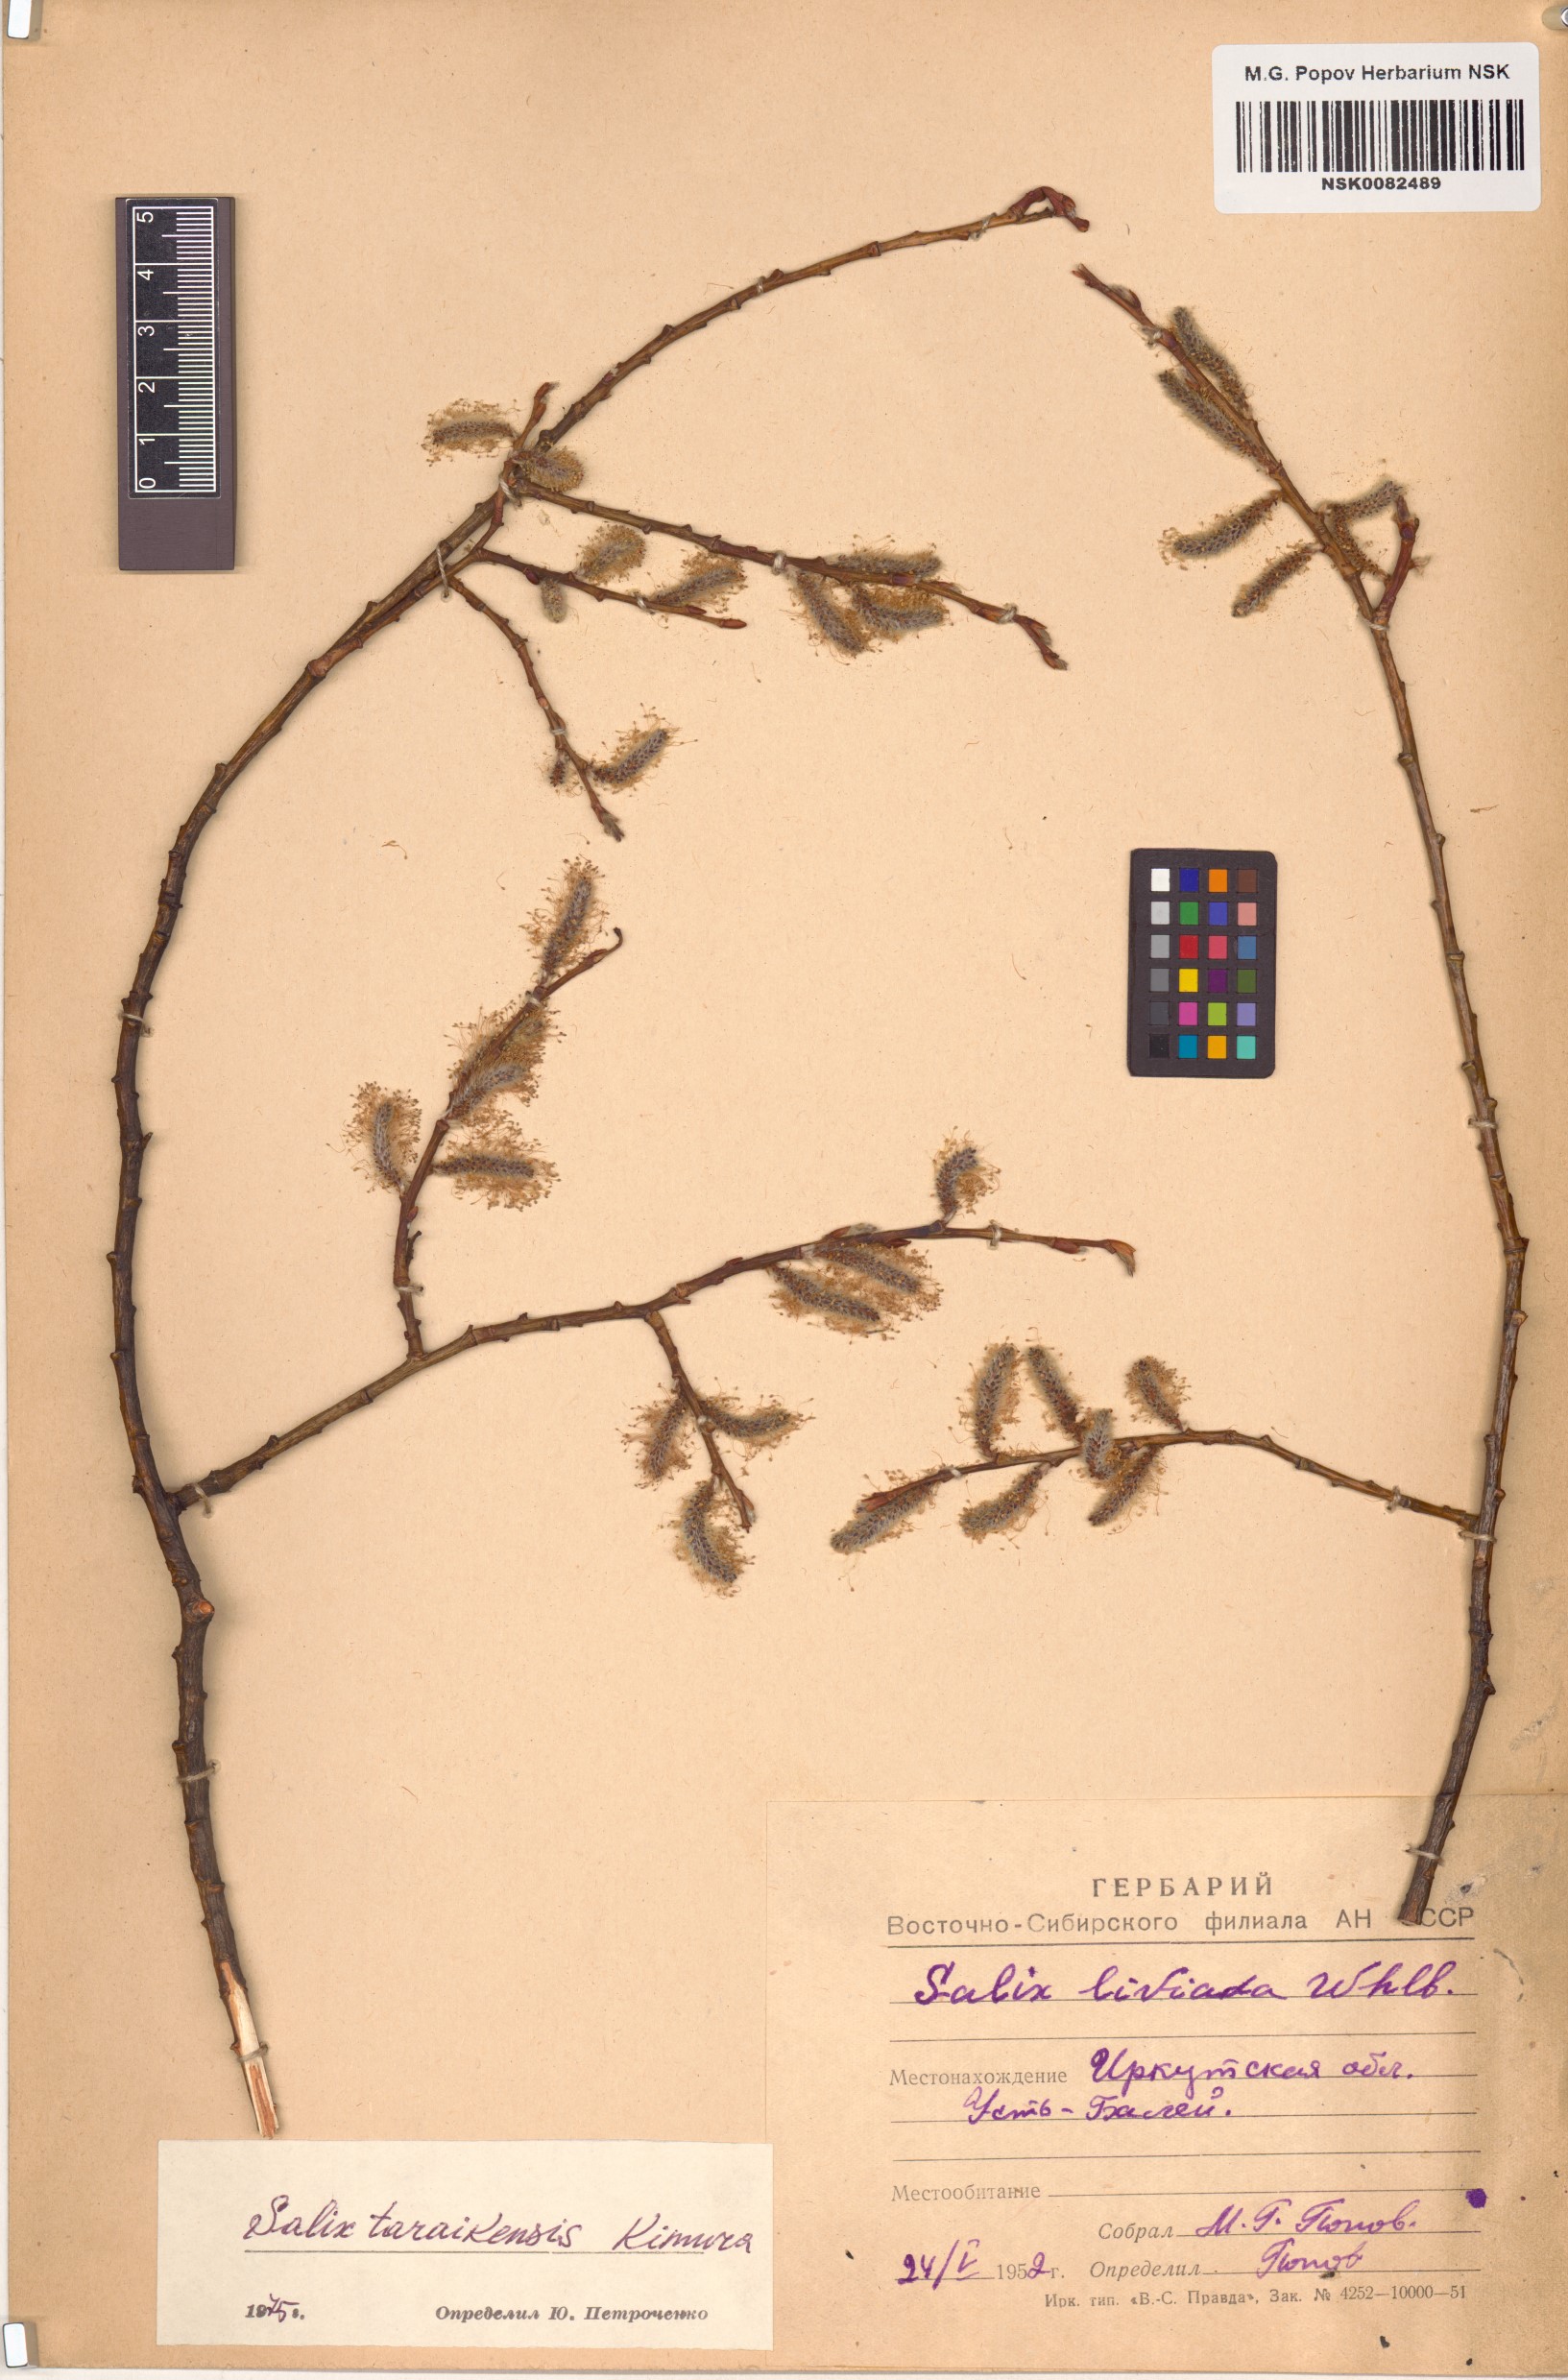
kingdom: Plantae
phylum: Tracheophyta
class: Magnoliopsida
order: Malpighiales
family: Salicaceae
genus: Salix
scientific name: Salix taraikensis
